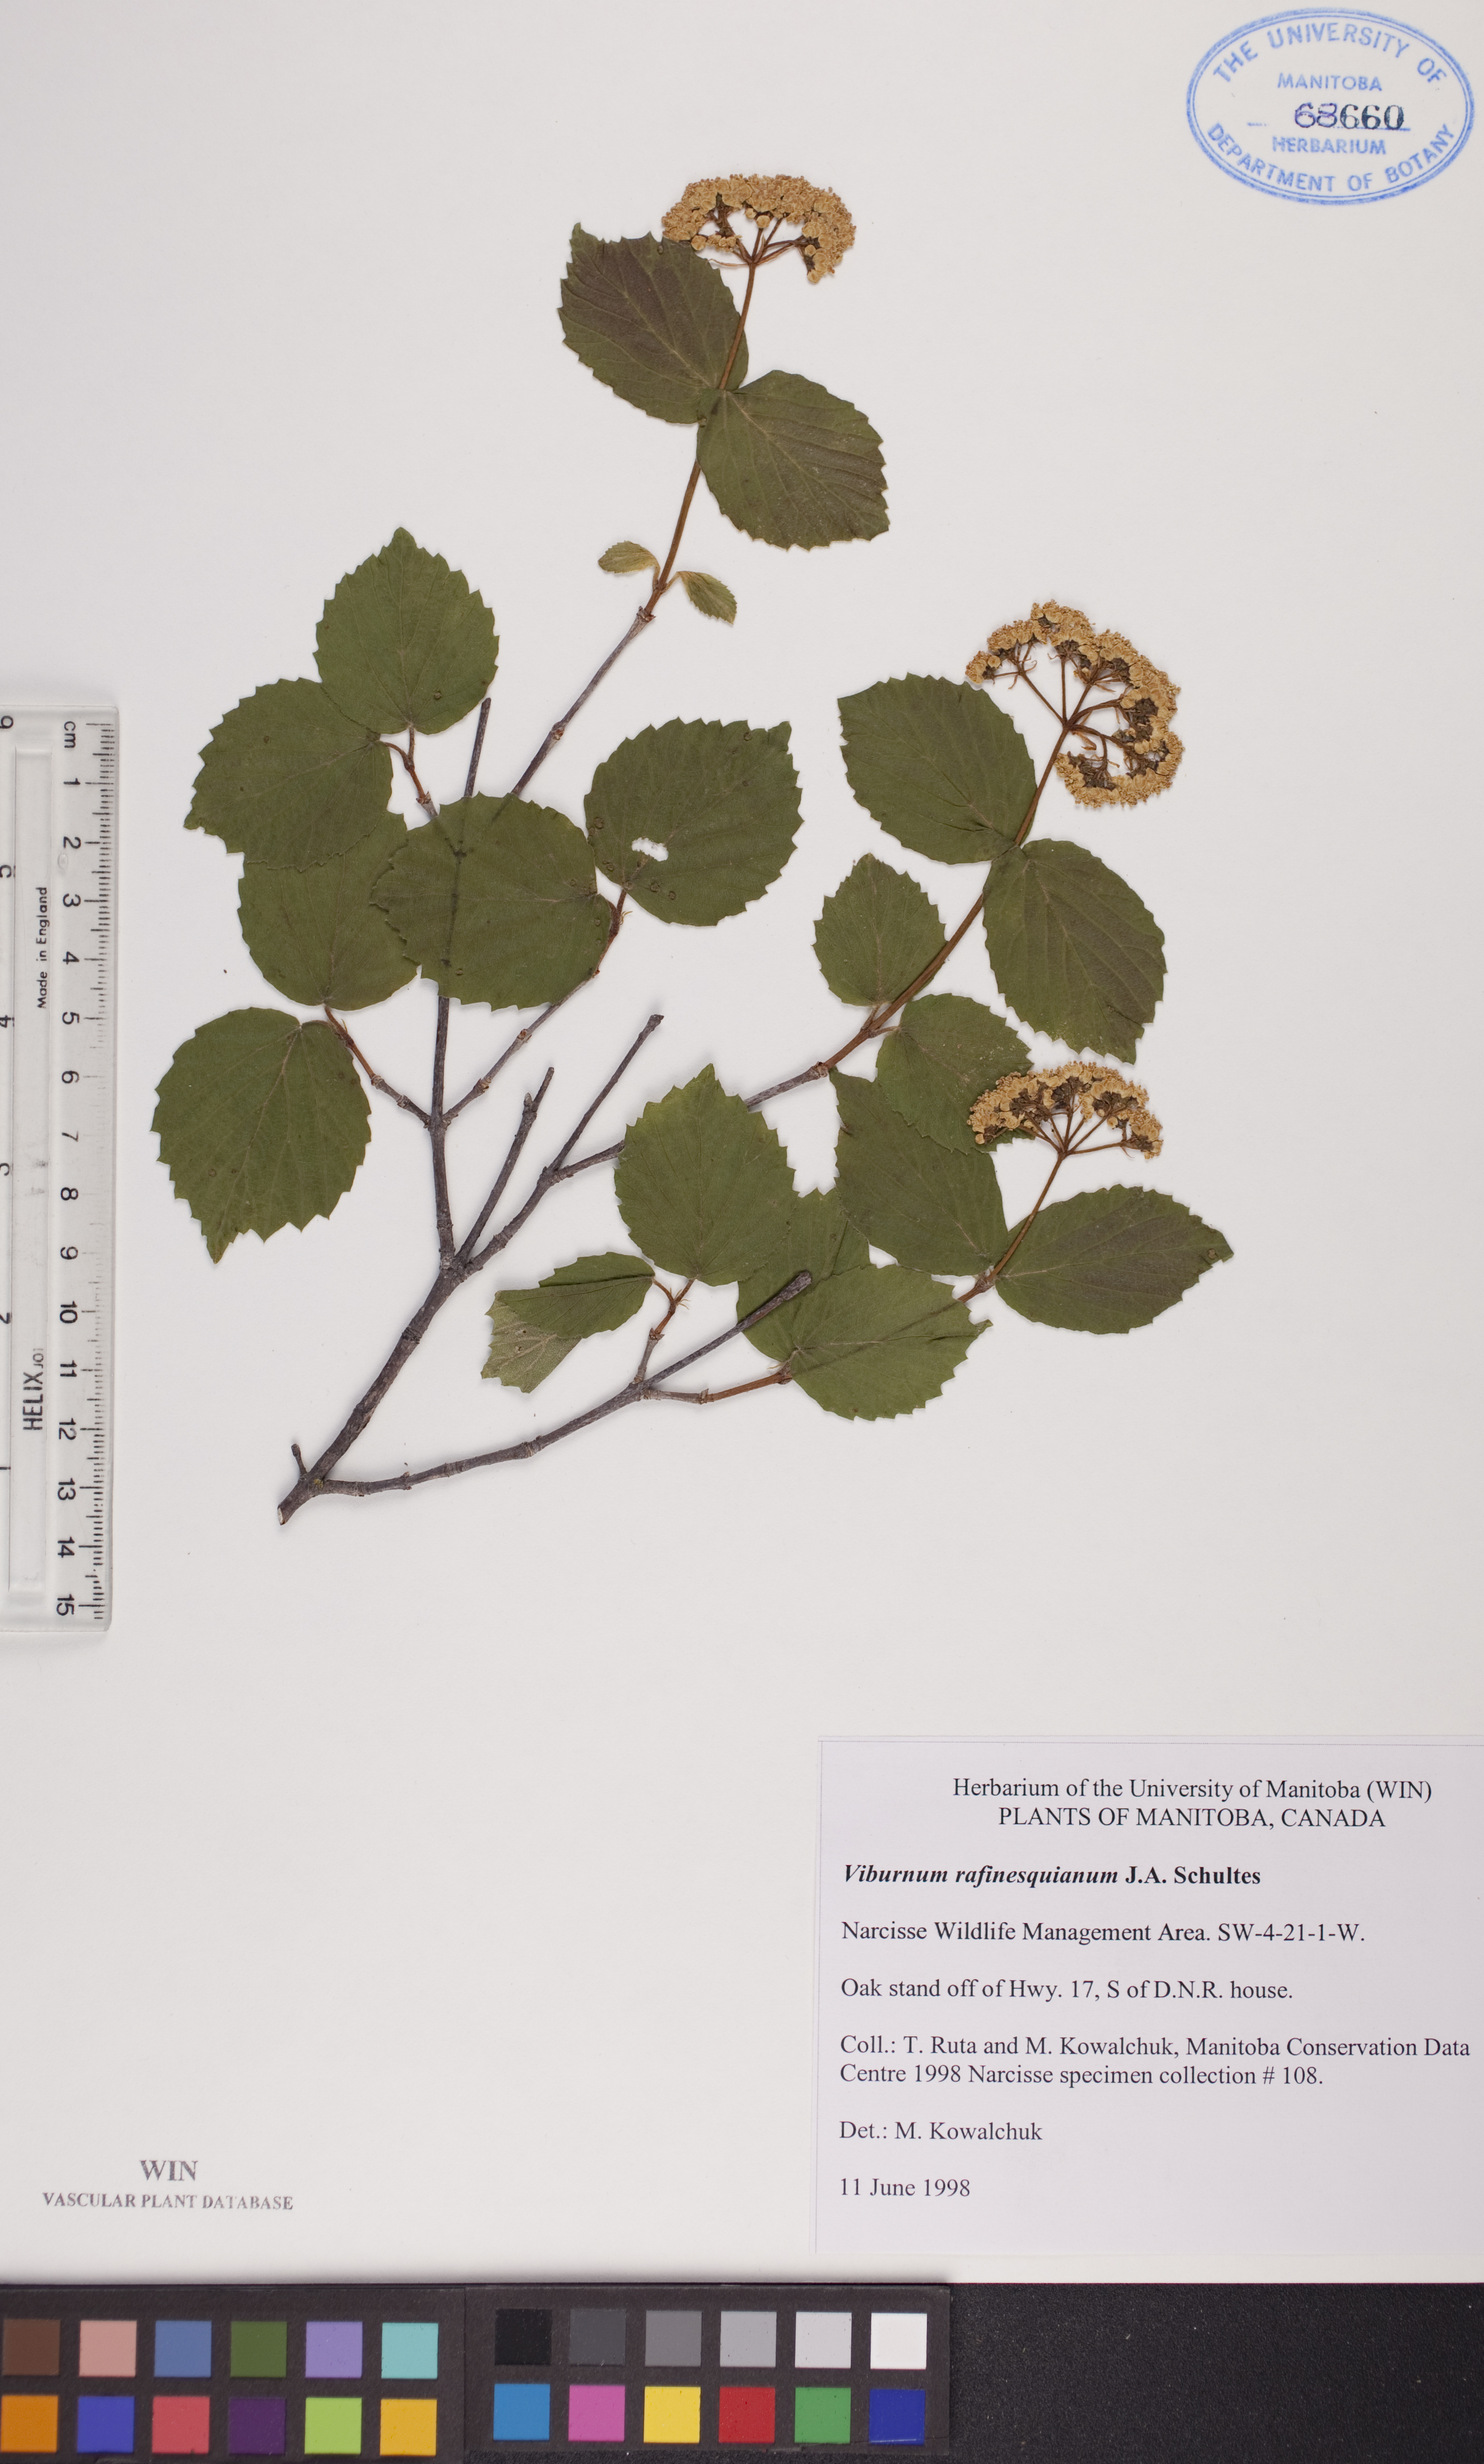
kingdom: Plantae
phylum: Tracheophyta
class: Magnoliopsida
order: Dipsacales
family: Viburnaceae
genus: Viburnum
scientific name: Viburnum rafinesquianum
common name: Downy arrow-wood
